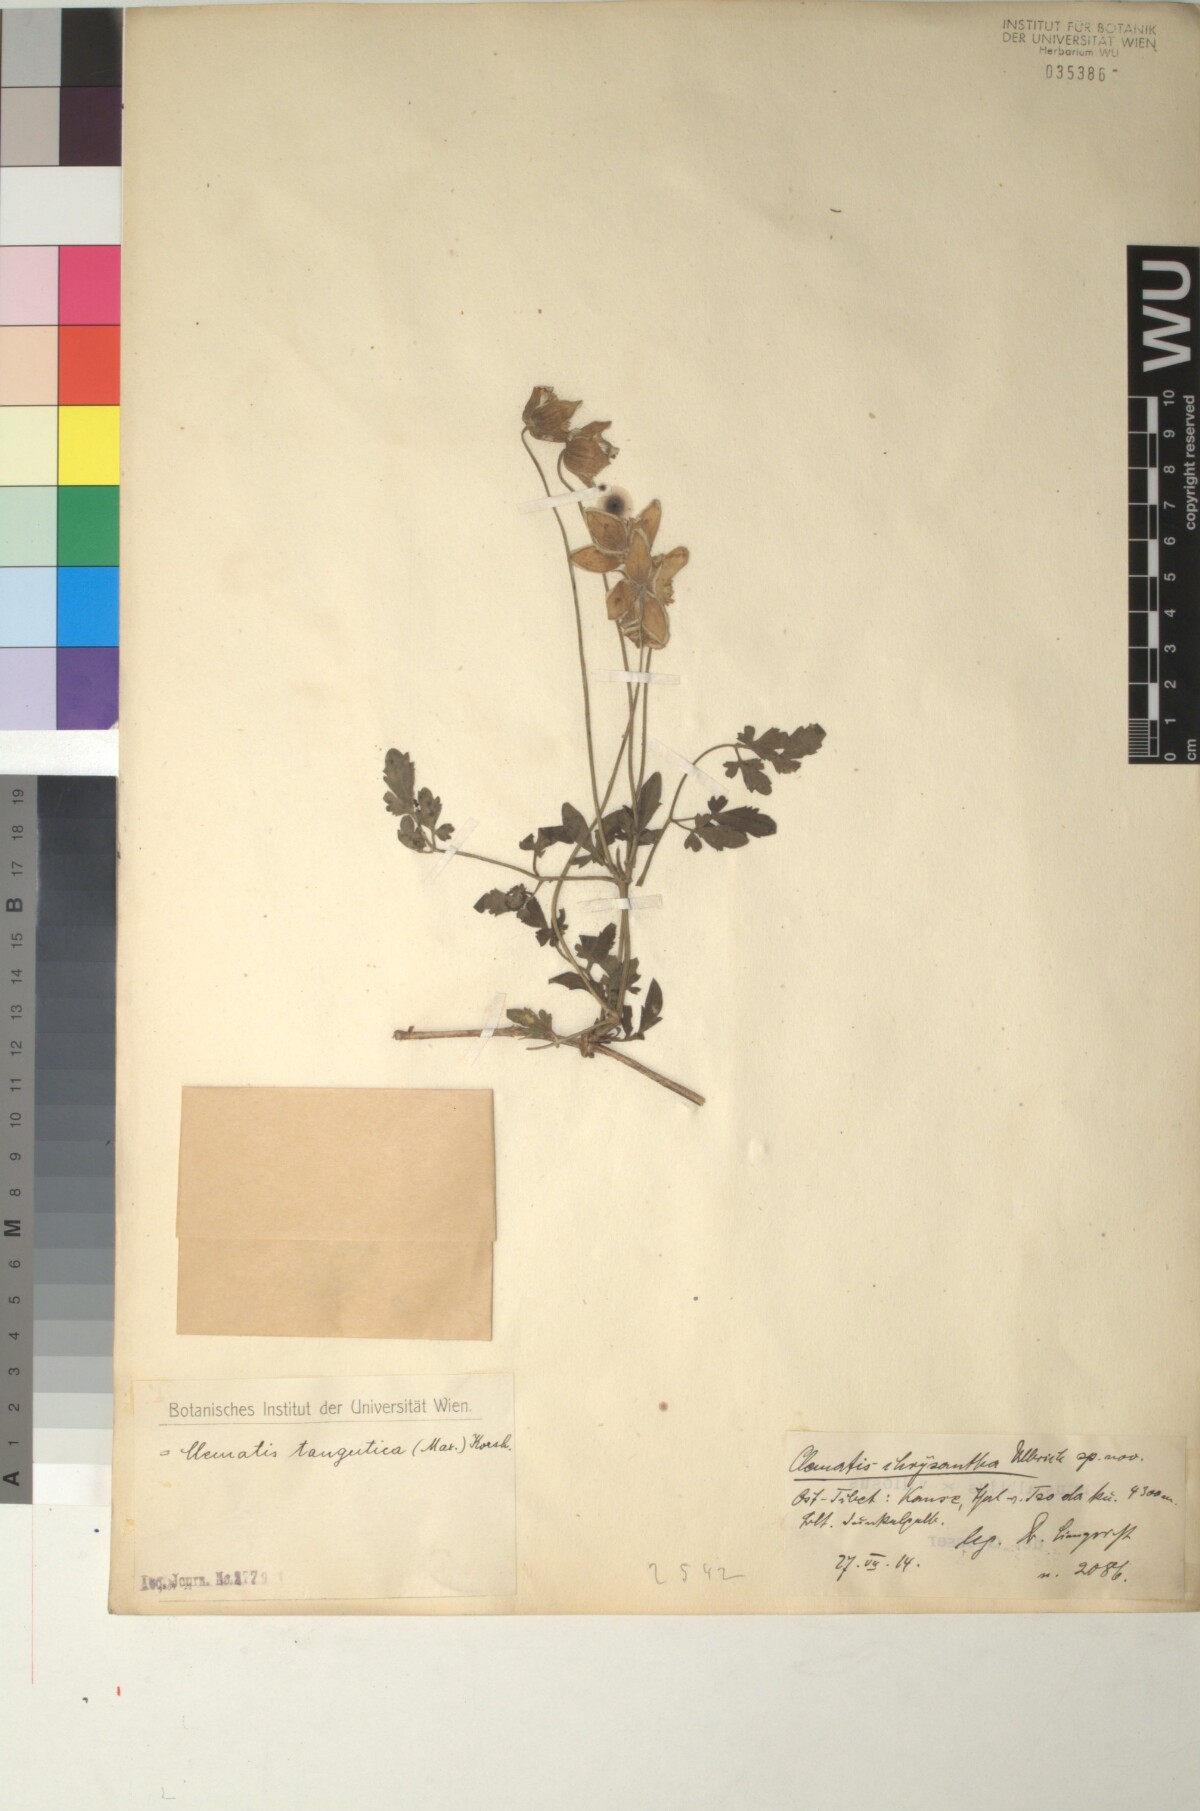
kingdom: Plantae
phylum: Tracheophyta
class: Magnoliopsida
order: Ranunculales
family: Ranunculaceae
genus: Clematis
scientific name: Clematis tangutica
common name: Orange-peel clematis
